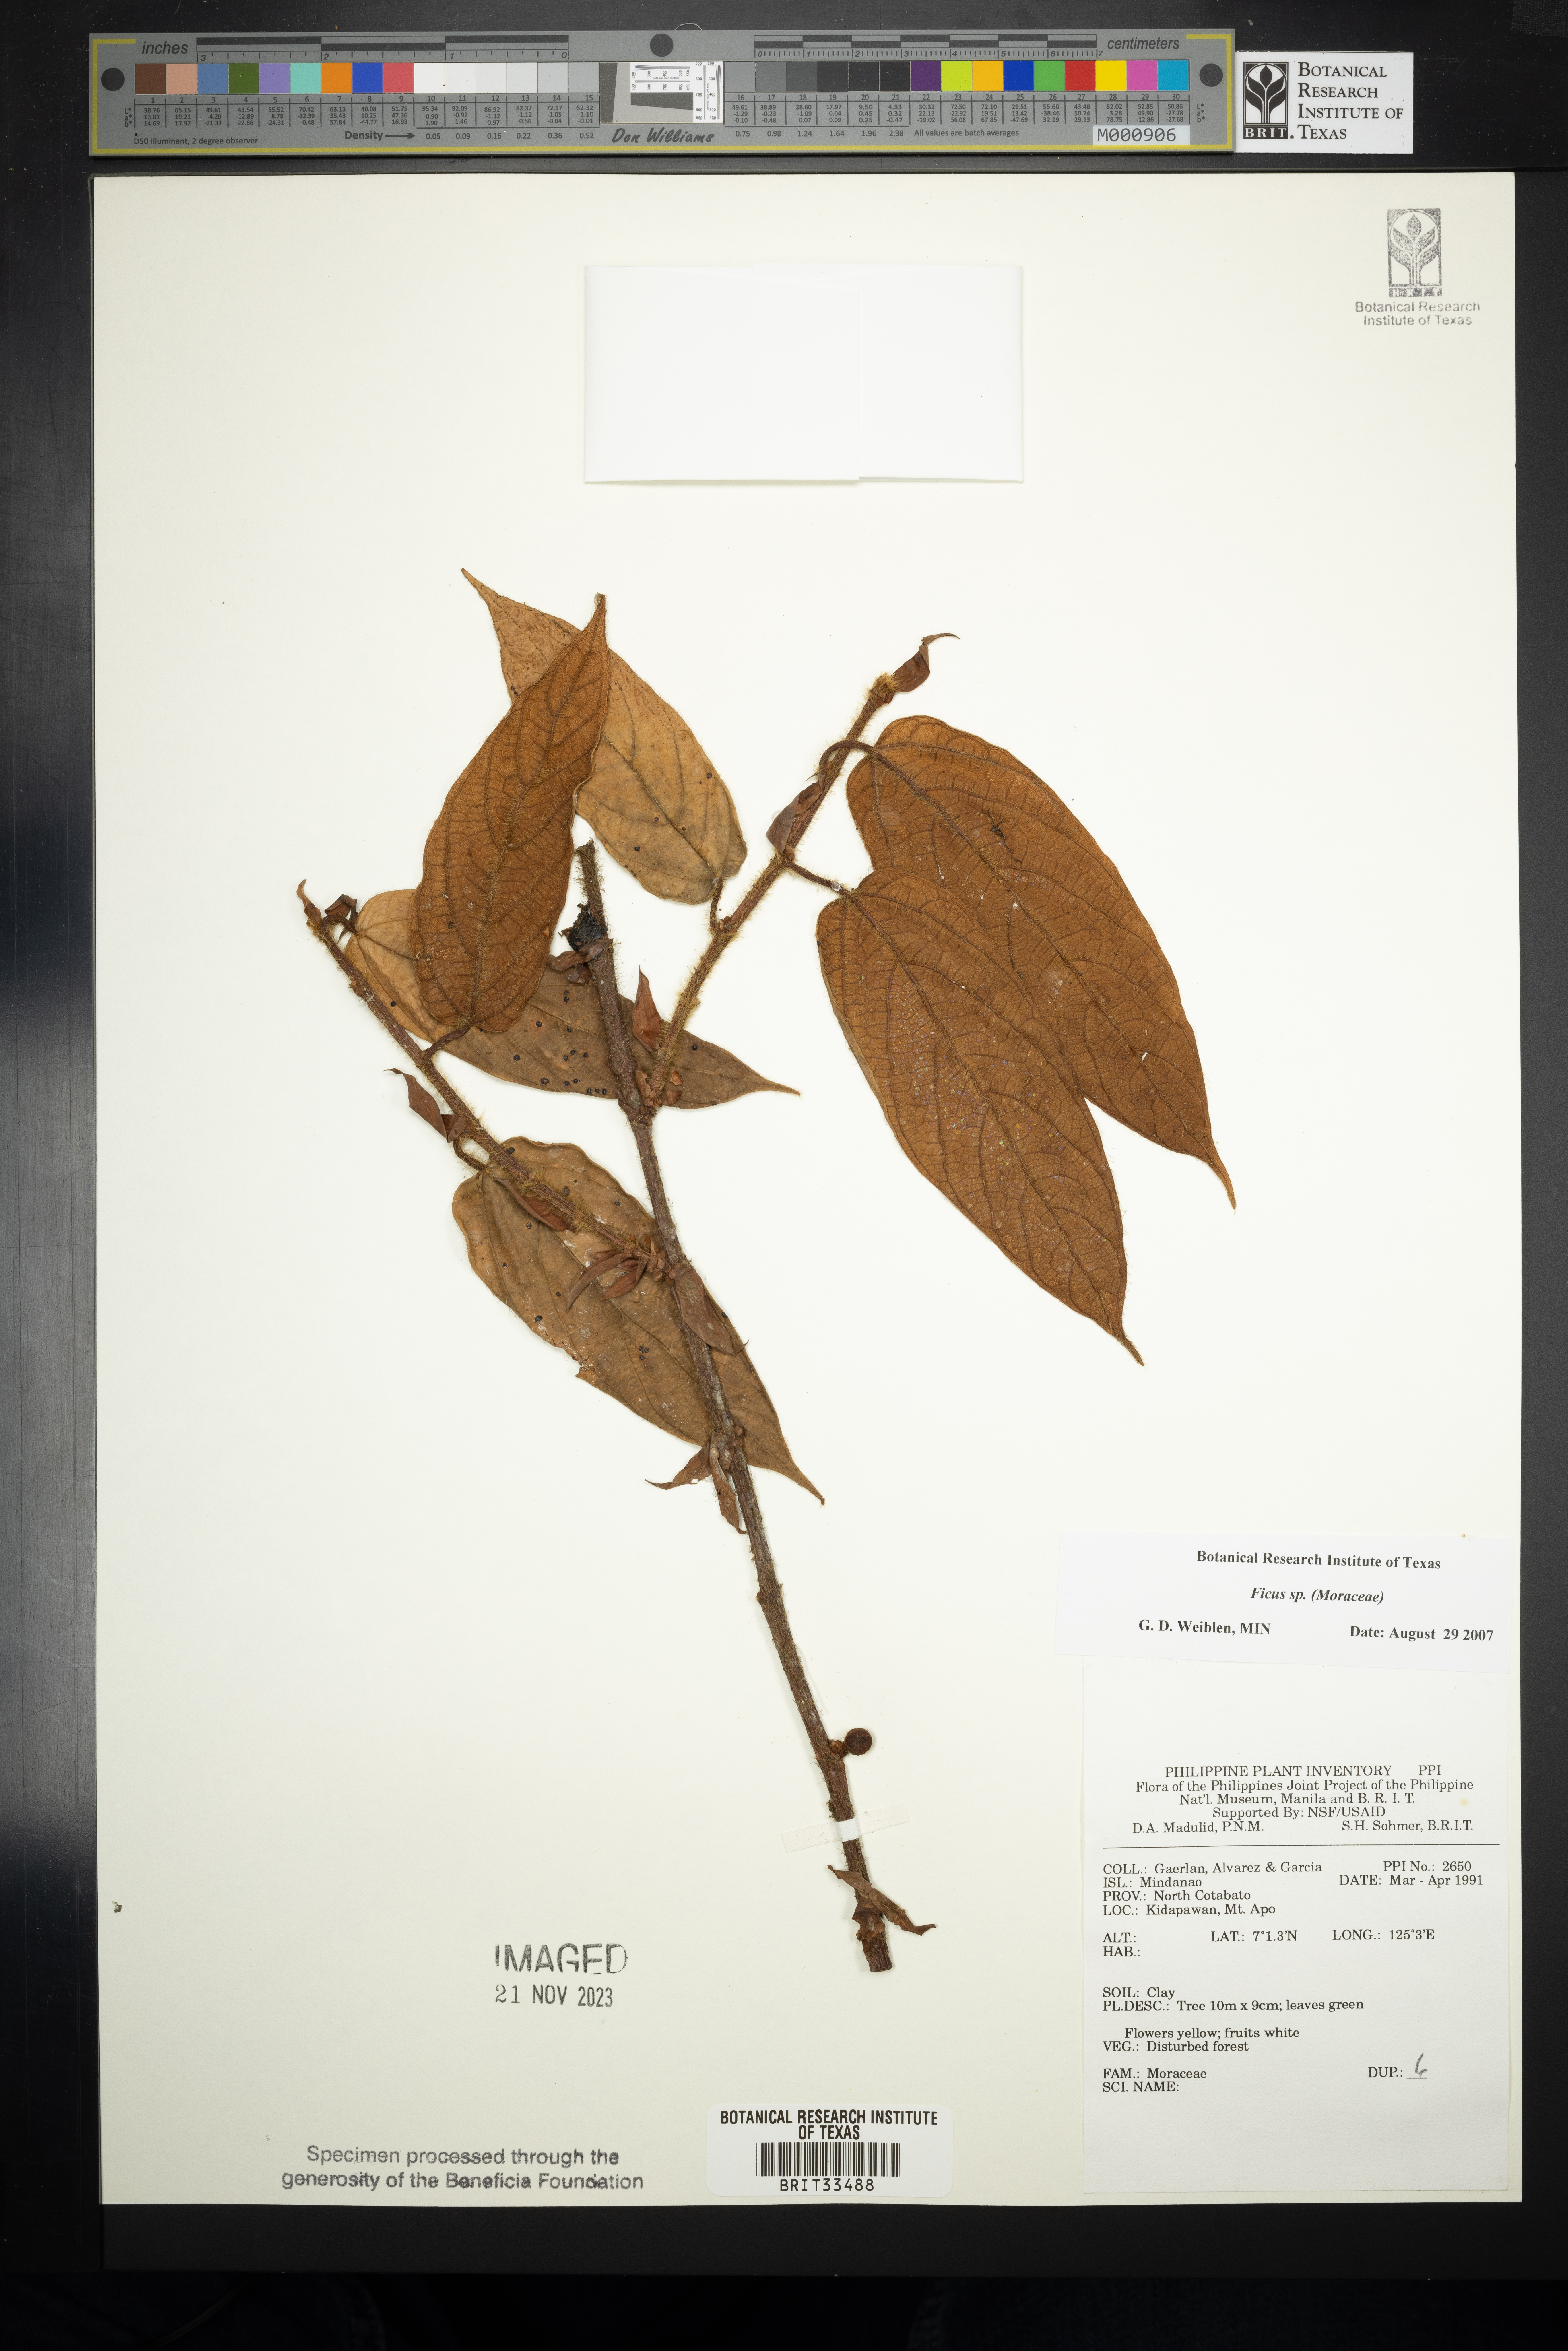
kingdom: Plantae
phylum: Tracheophyta
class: Magnoliopsida
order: Rosales
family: Moraceae
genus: Ficus
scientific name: Ficus
